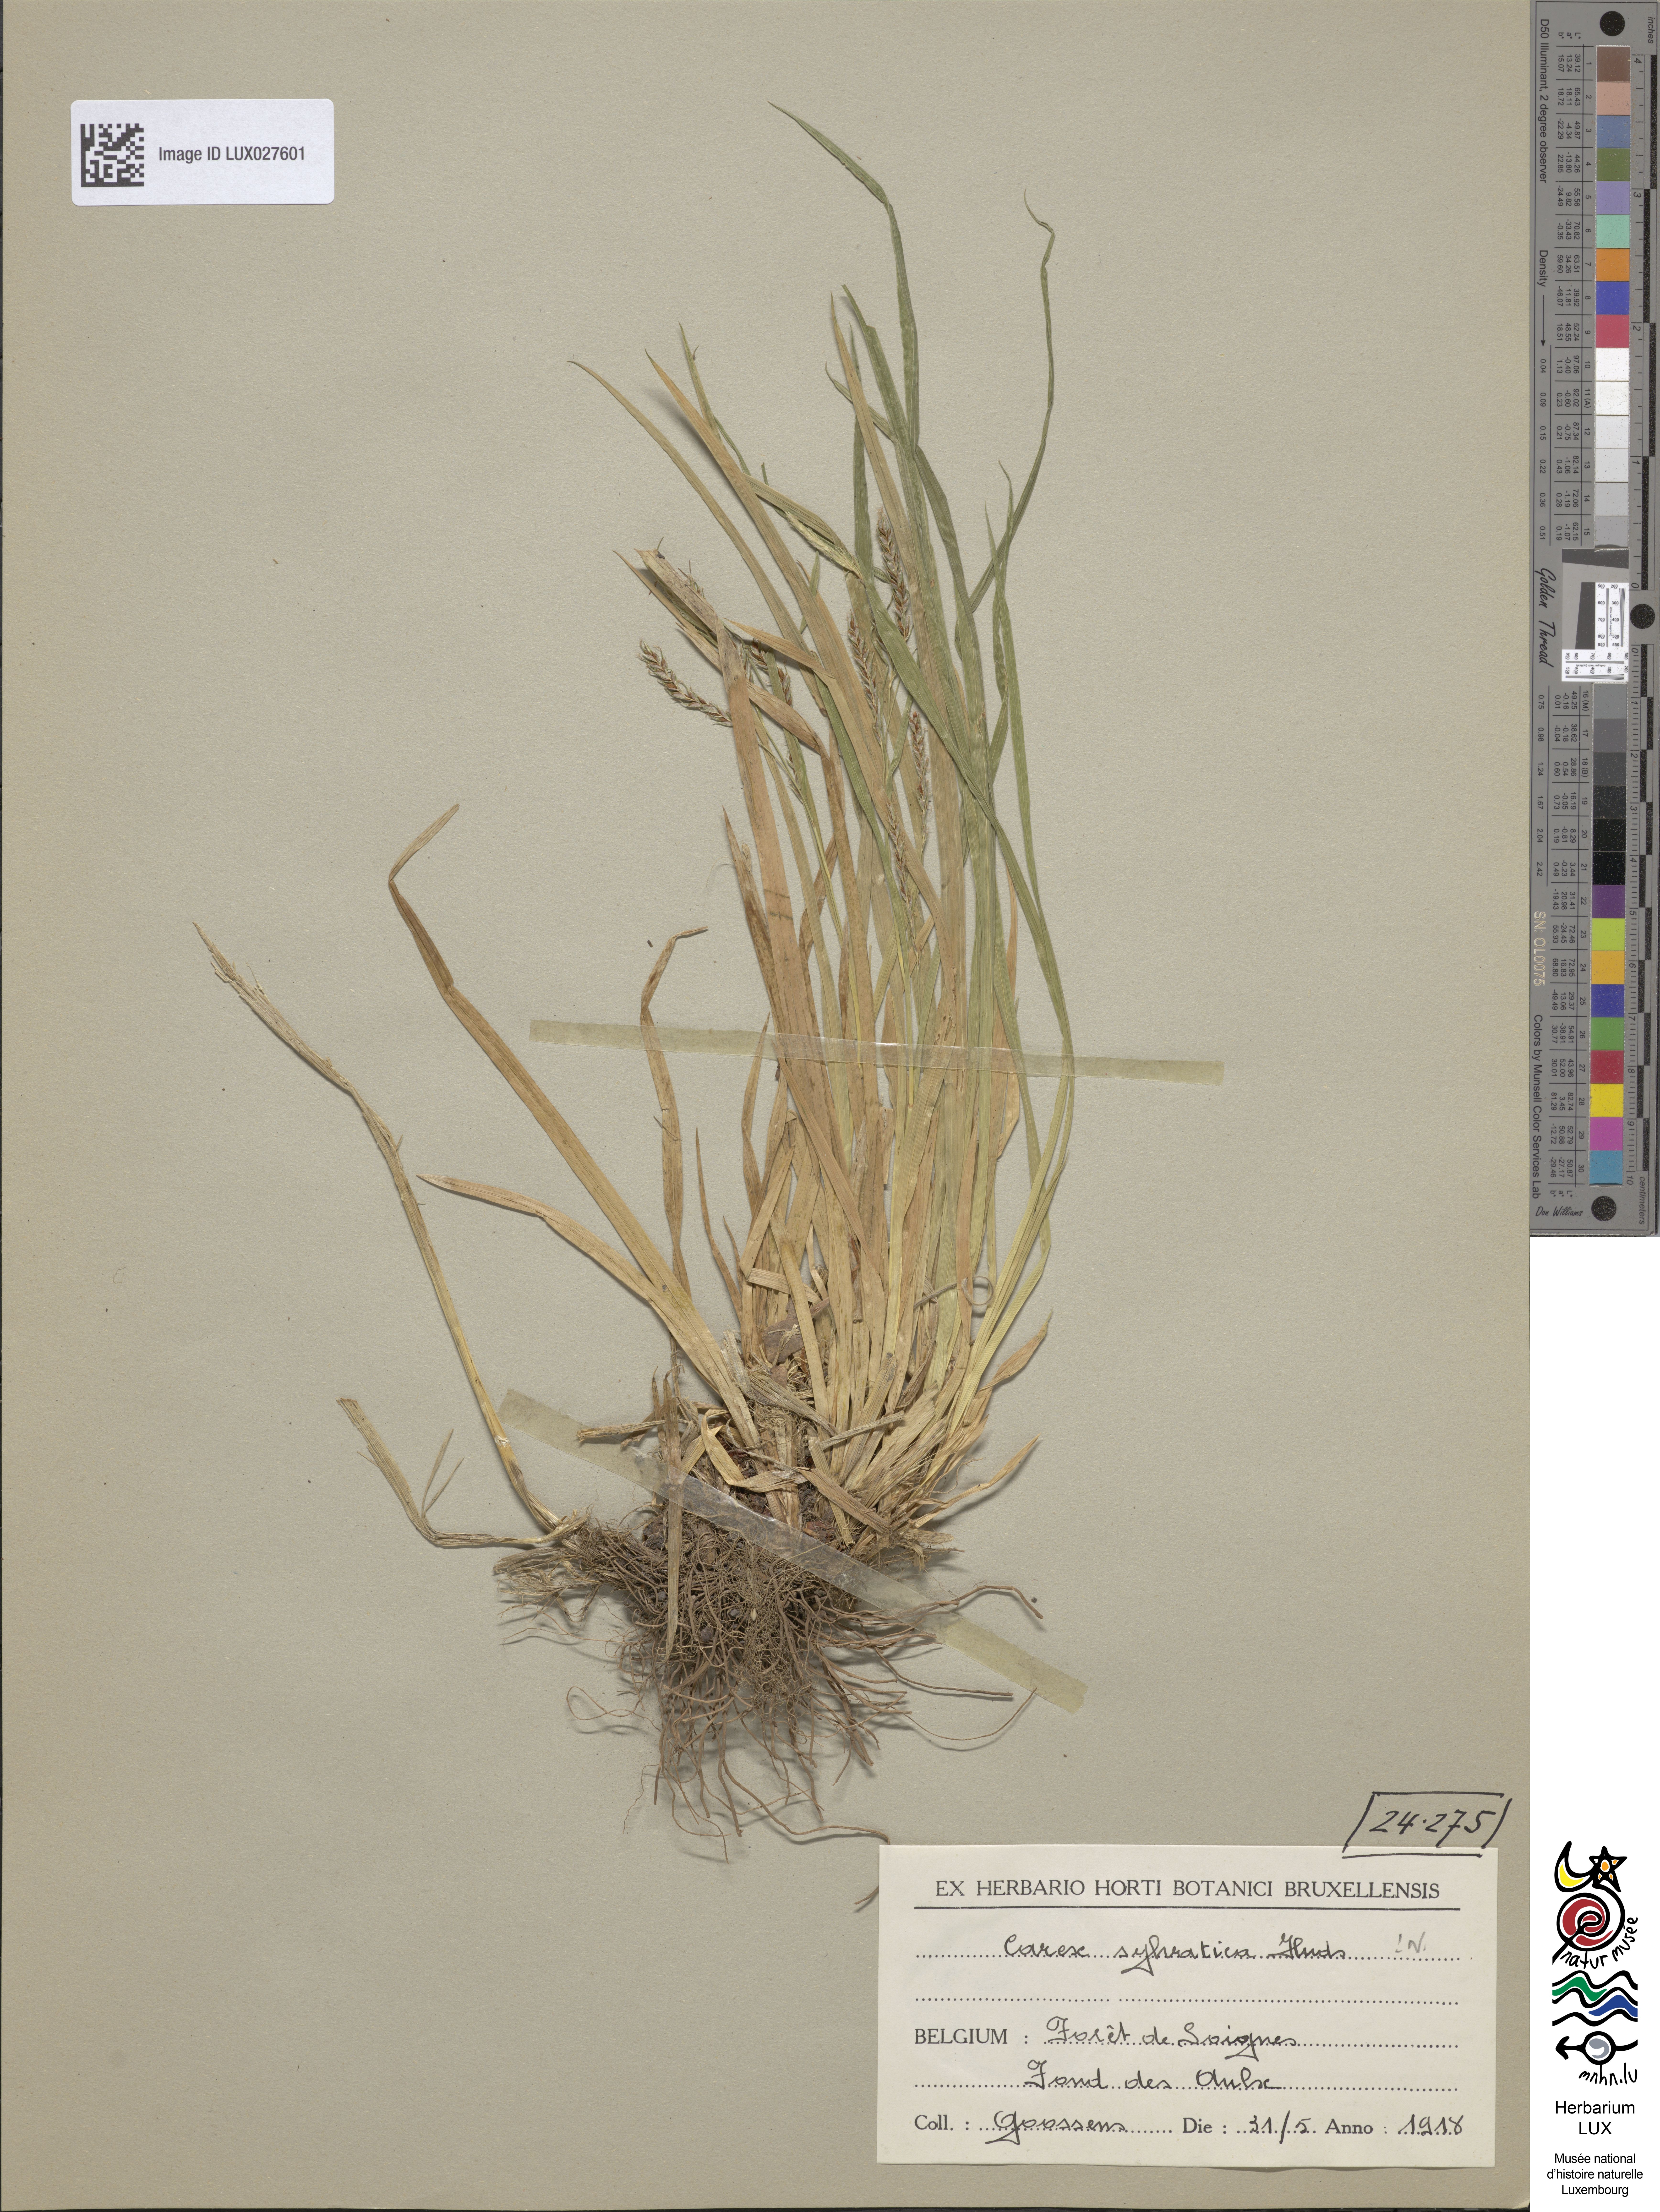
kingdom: Plantae
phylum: Tracheophyta
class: Liliopsida
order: Poales
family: Cyperaceae
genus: Carex
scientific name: Carex sylvatica
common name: Wood-sedge
